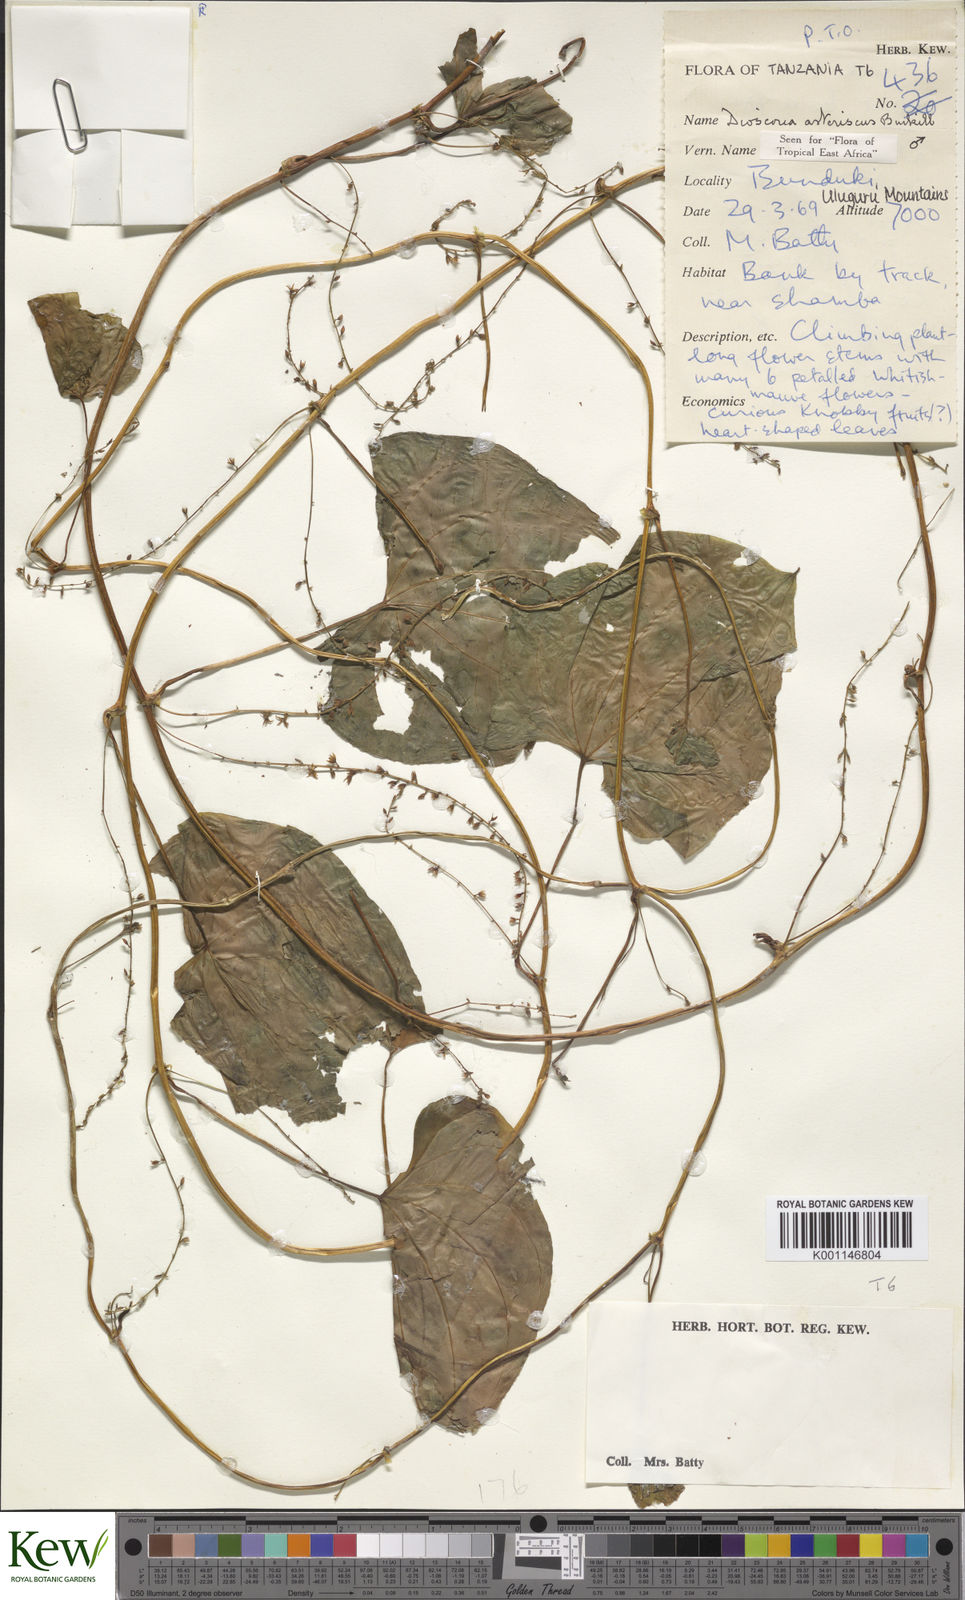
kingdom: Plantae
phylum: Tracheophyta
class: Liliopsida
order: Dioscoreales
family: Dioscoreaceae
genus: Dioscorea
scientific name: Dioscorea asteriscus
